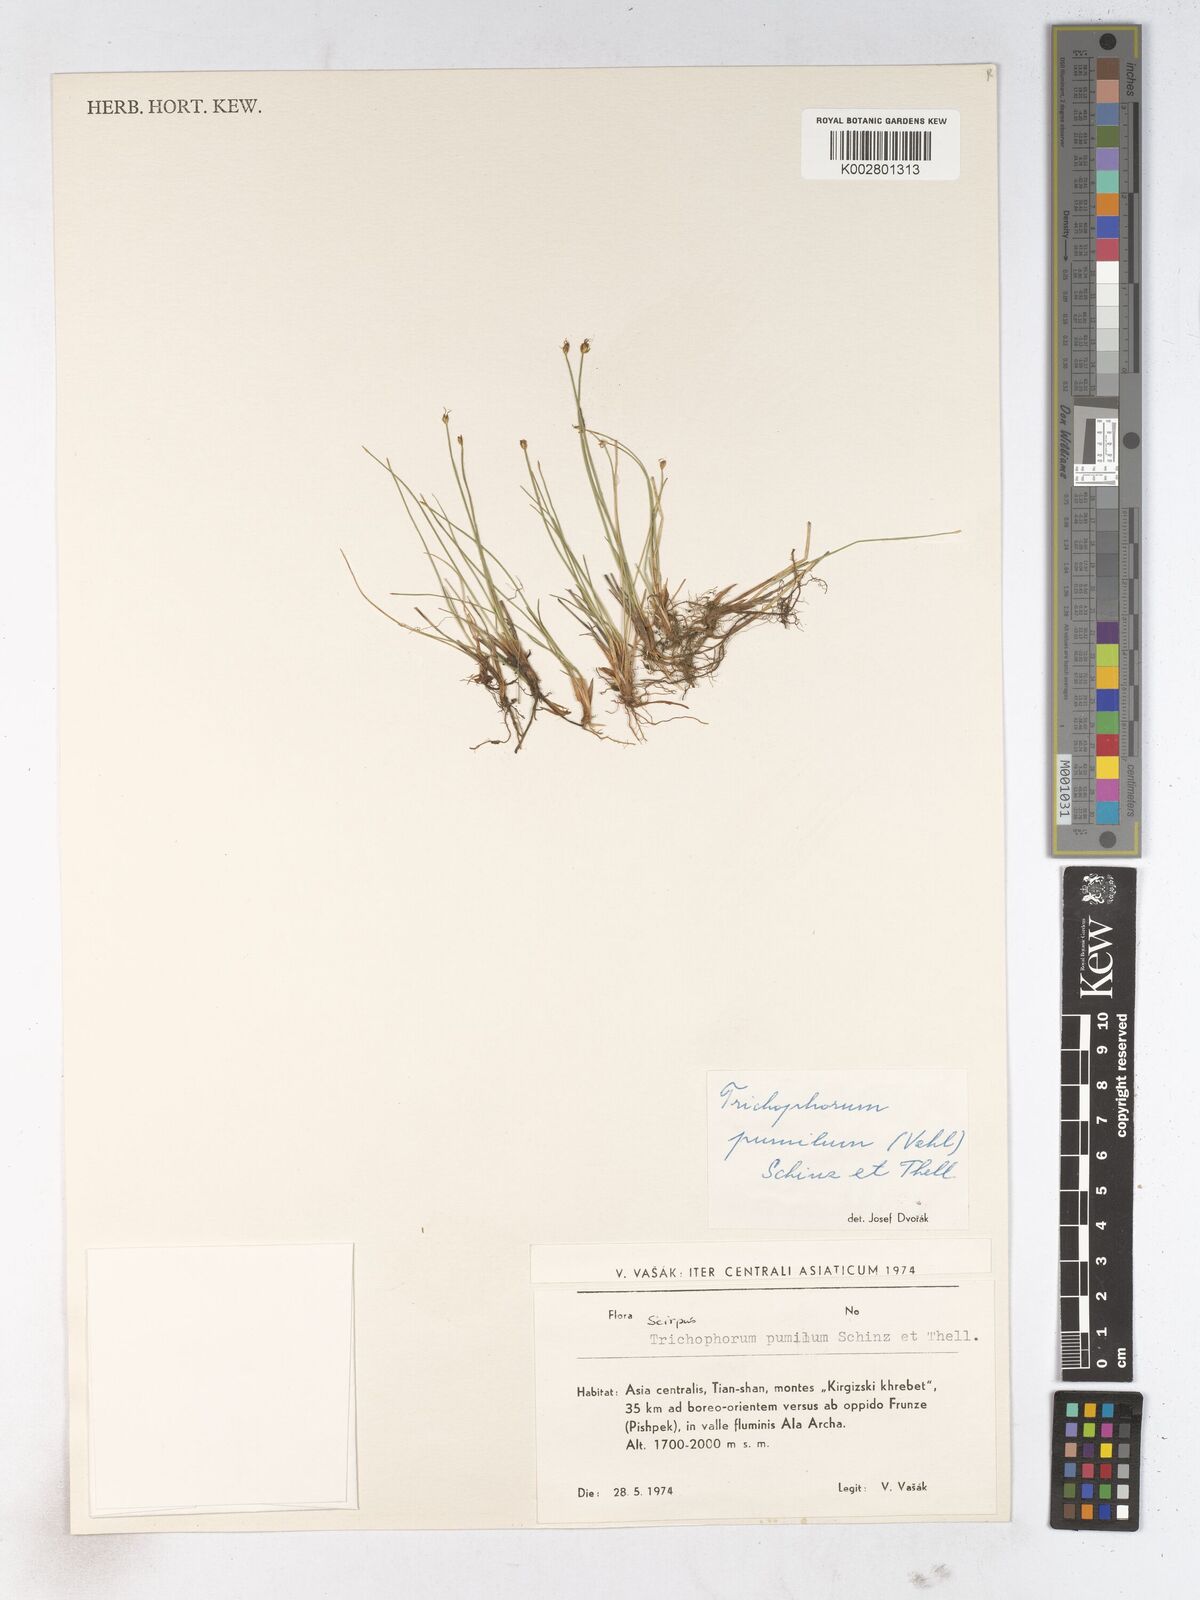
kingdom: Plantae
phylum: Tracheophyta
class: Liliopsida
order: Poales
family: Cyperaceae
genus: Trichophorum
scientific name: Trichophorum pumilum
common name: Rolland's bulrush
